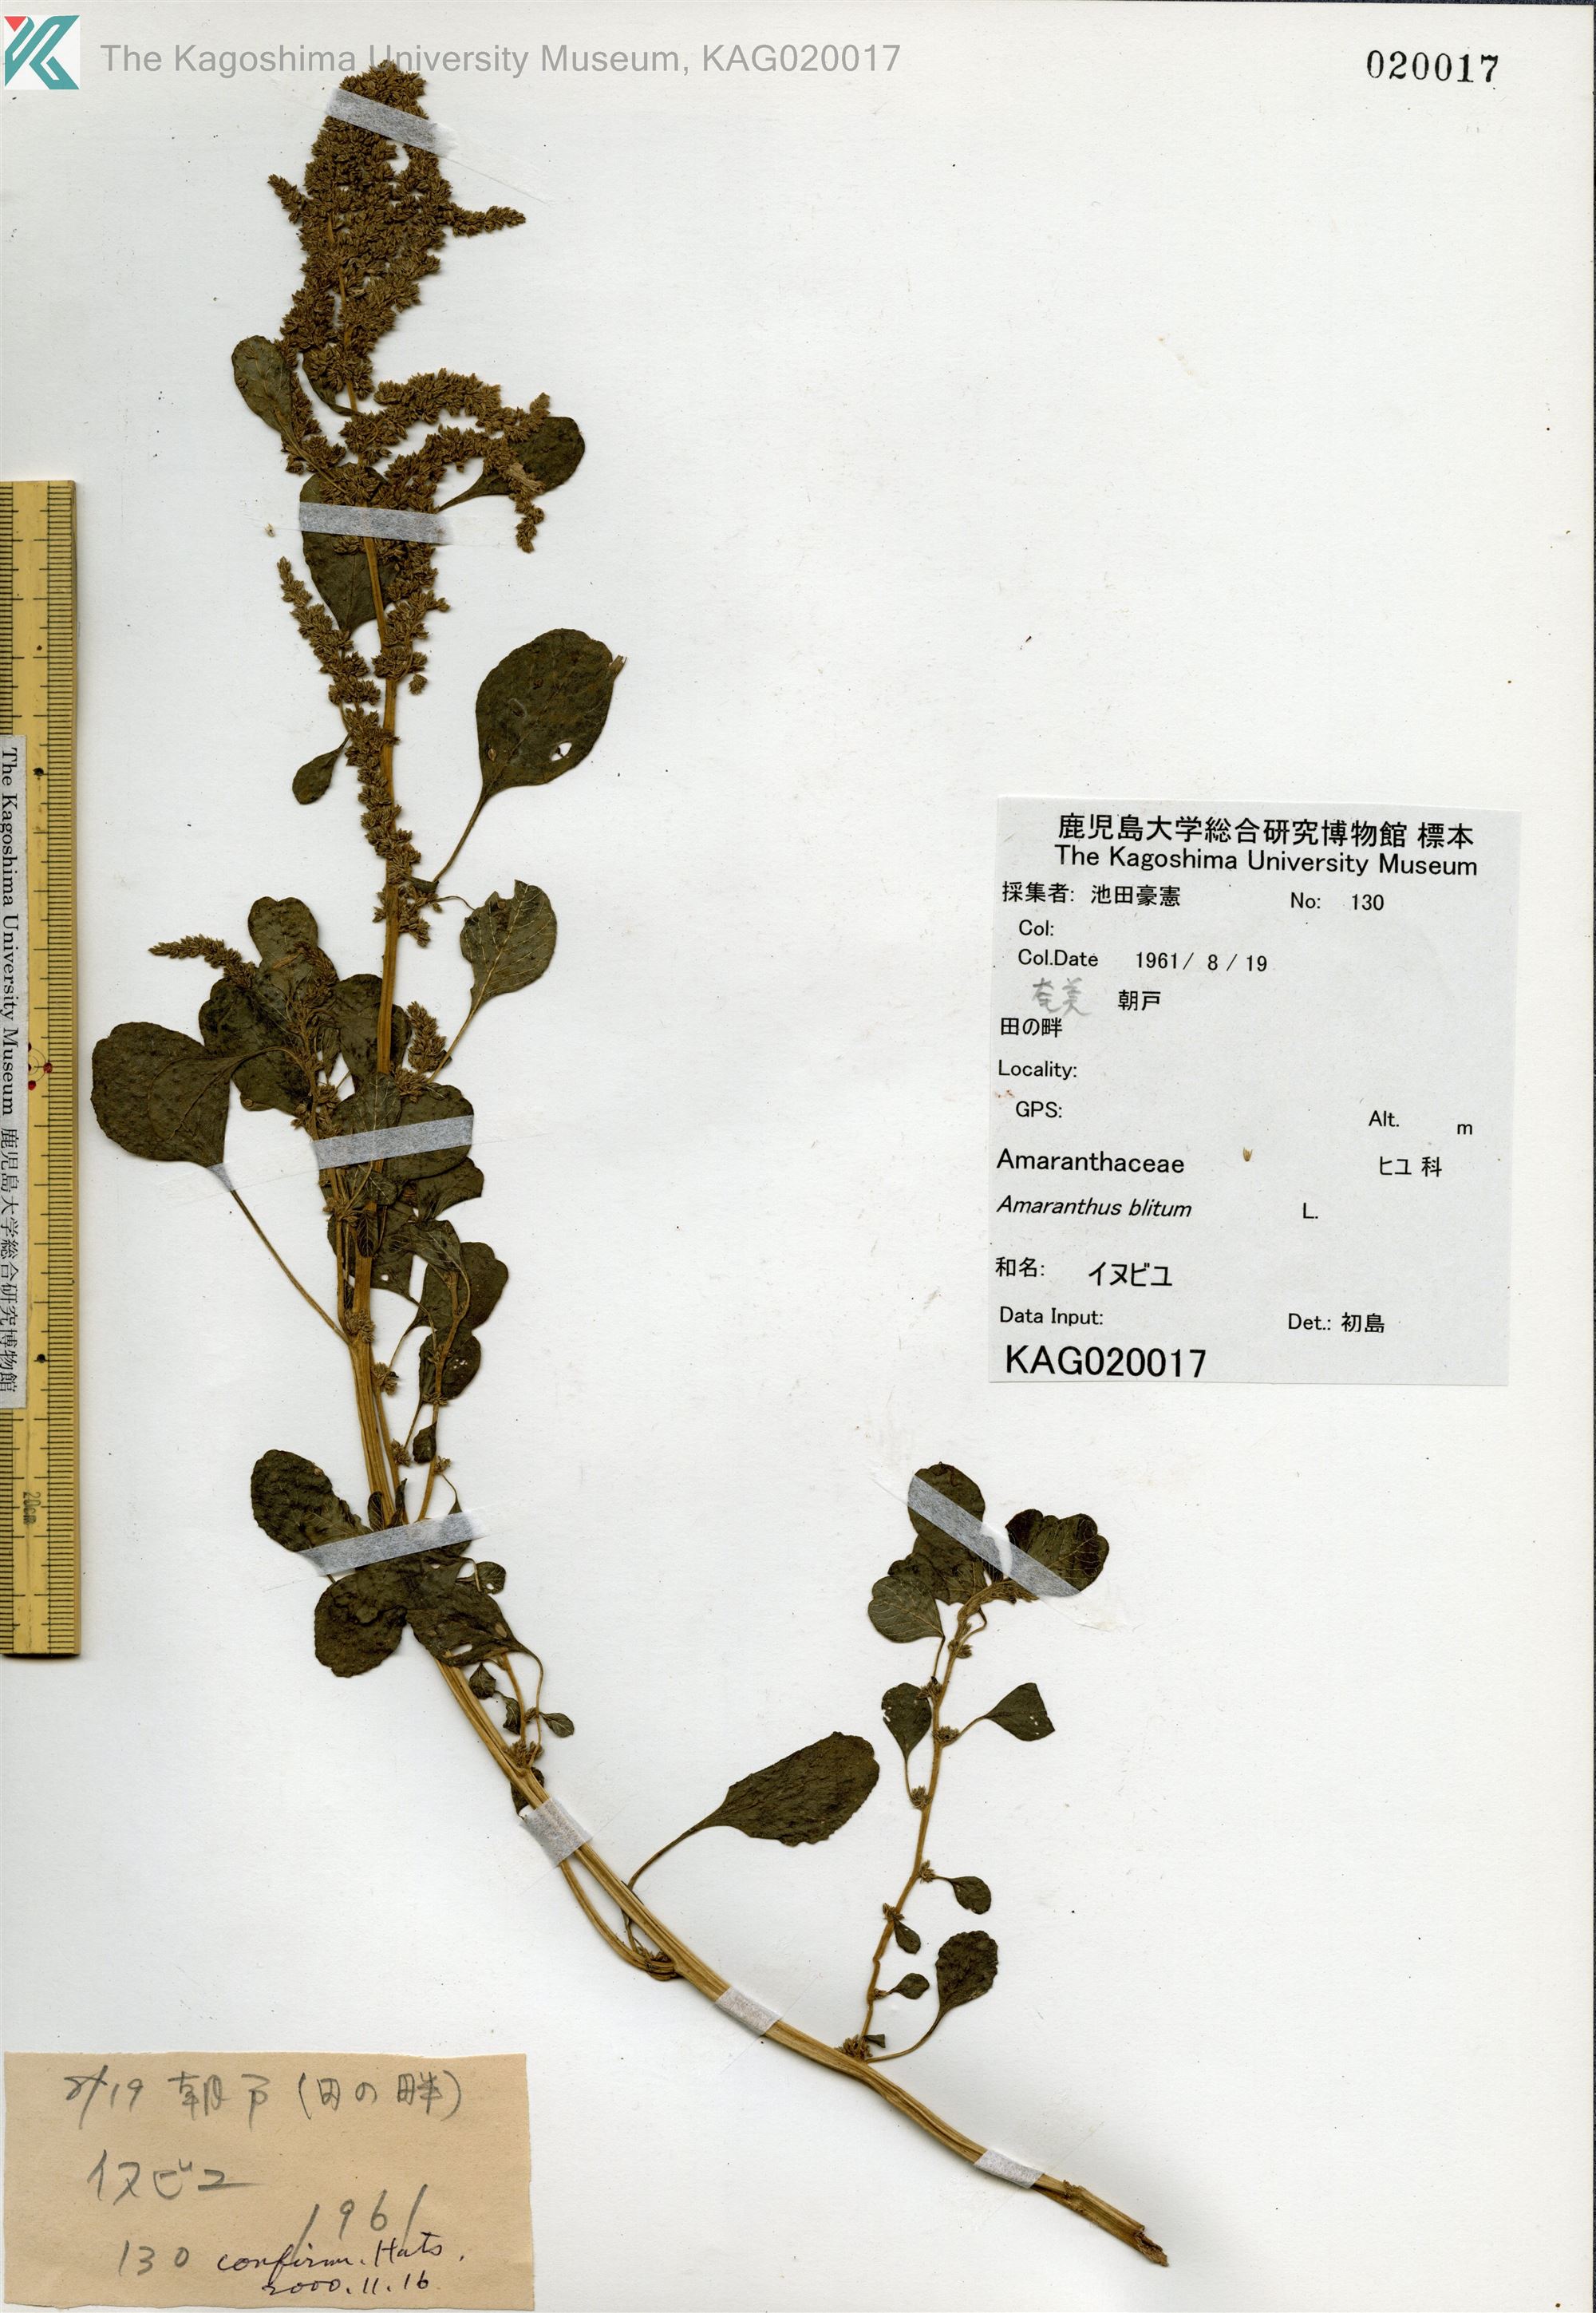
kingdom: Plantae
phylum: Tracheophyta
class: Magnoliopsida
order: Caryophyllales
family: Amaranthaceae
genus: Amaranthus
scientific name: Amaranthus blitum
